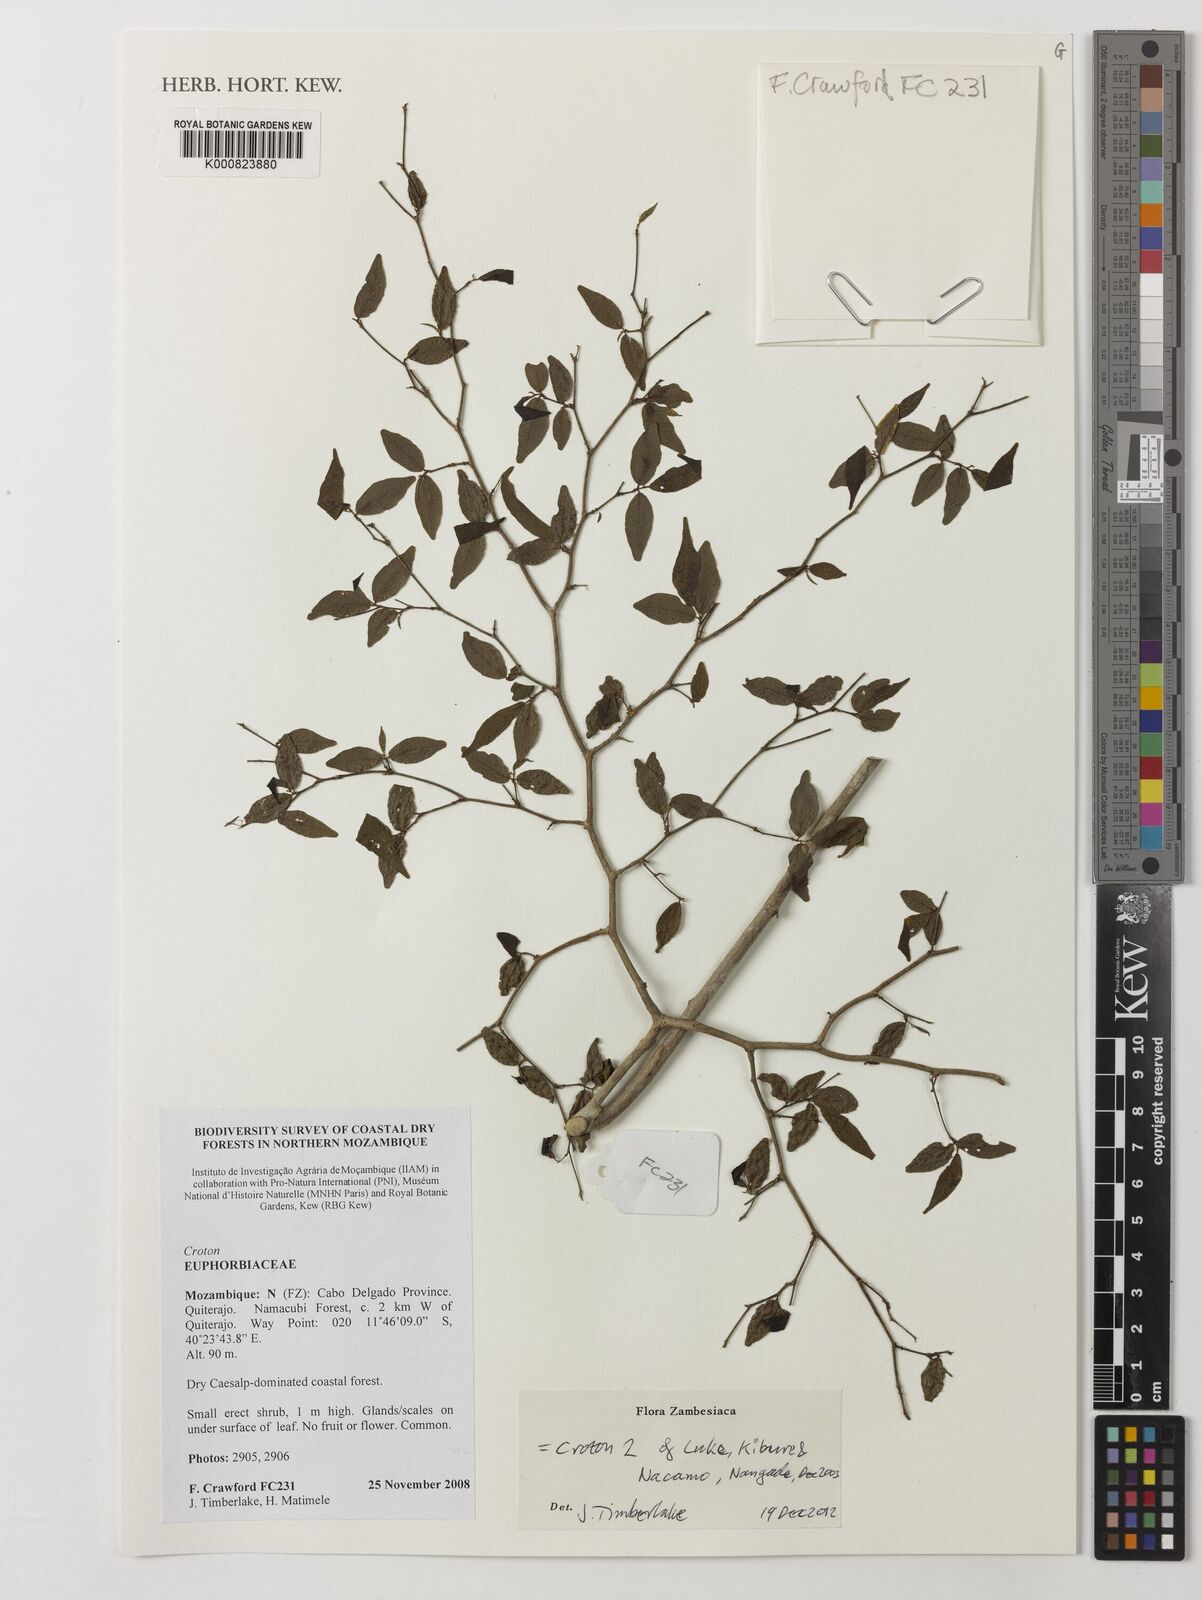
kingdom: Plantae
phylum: Tracheophyta
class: Magnoliopsida
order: Malpighiales
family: Euphorbiaceae
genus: Croton
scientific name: Croton
